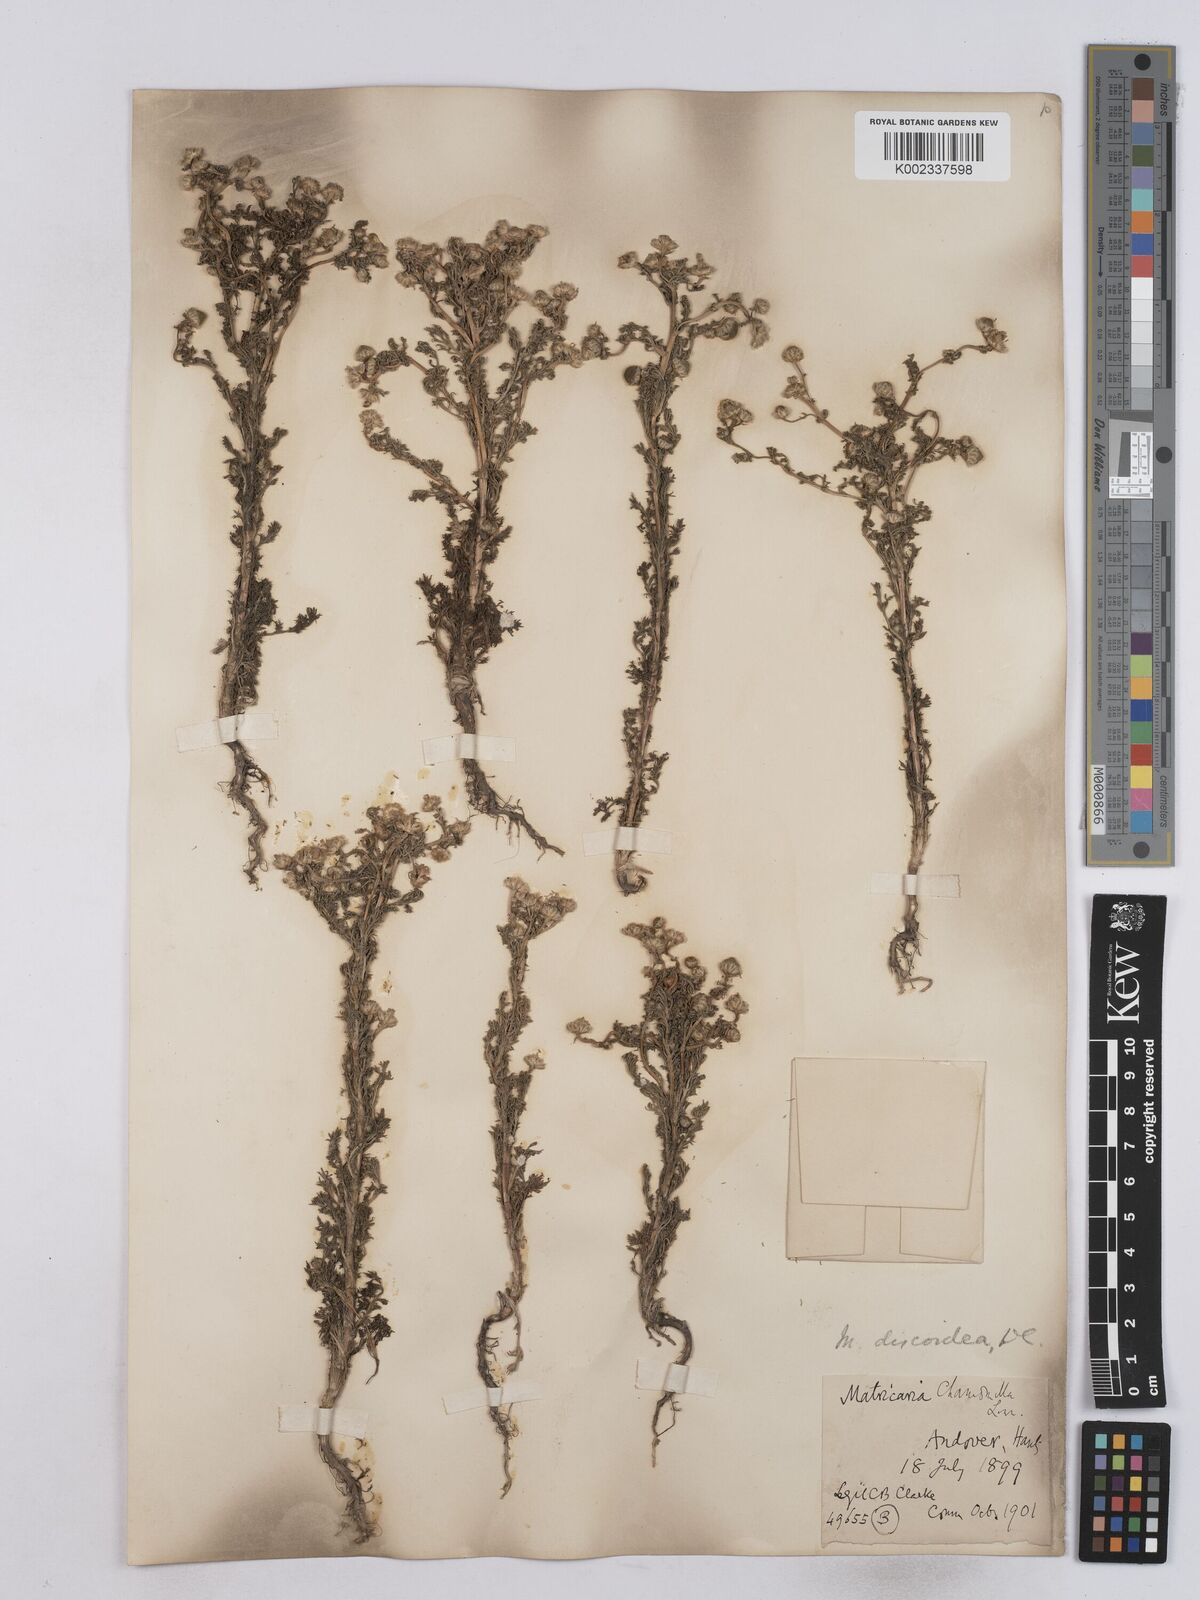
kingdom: Plantae
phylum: Tracheophyta
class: Magnoliopsida
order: Asterales
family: Asteraceae
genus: Matricaria
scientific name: Matricaria discoidea
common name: Disc mayweed
